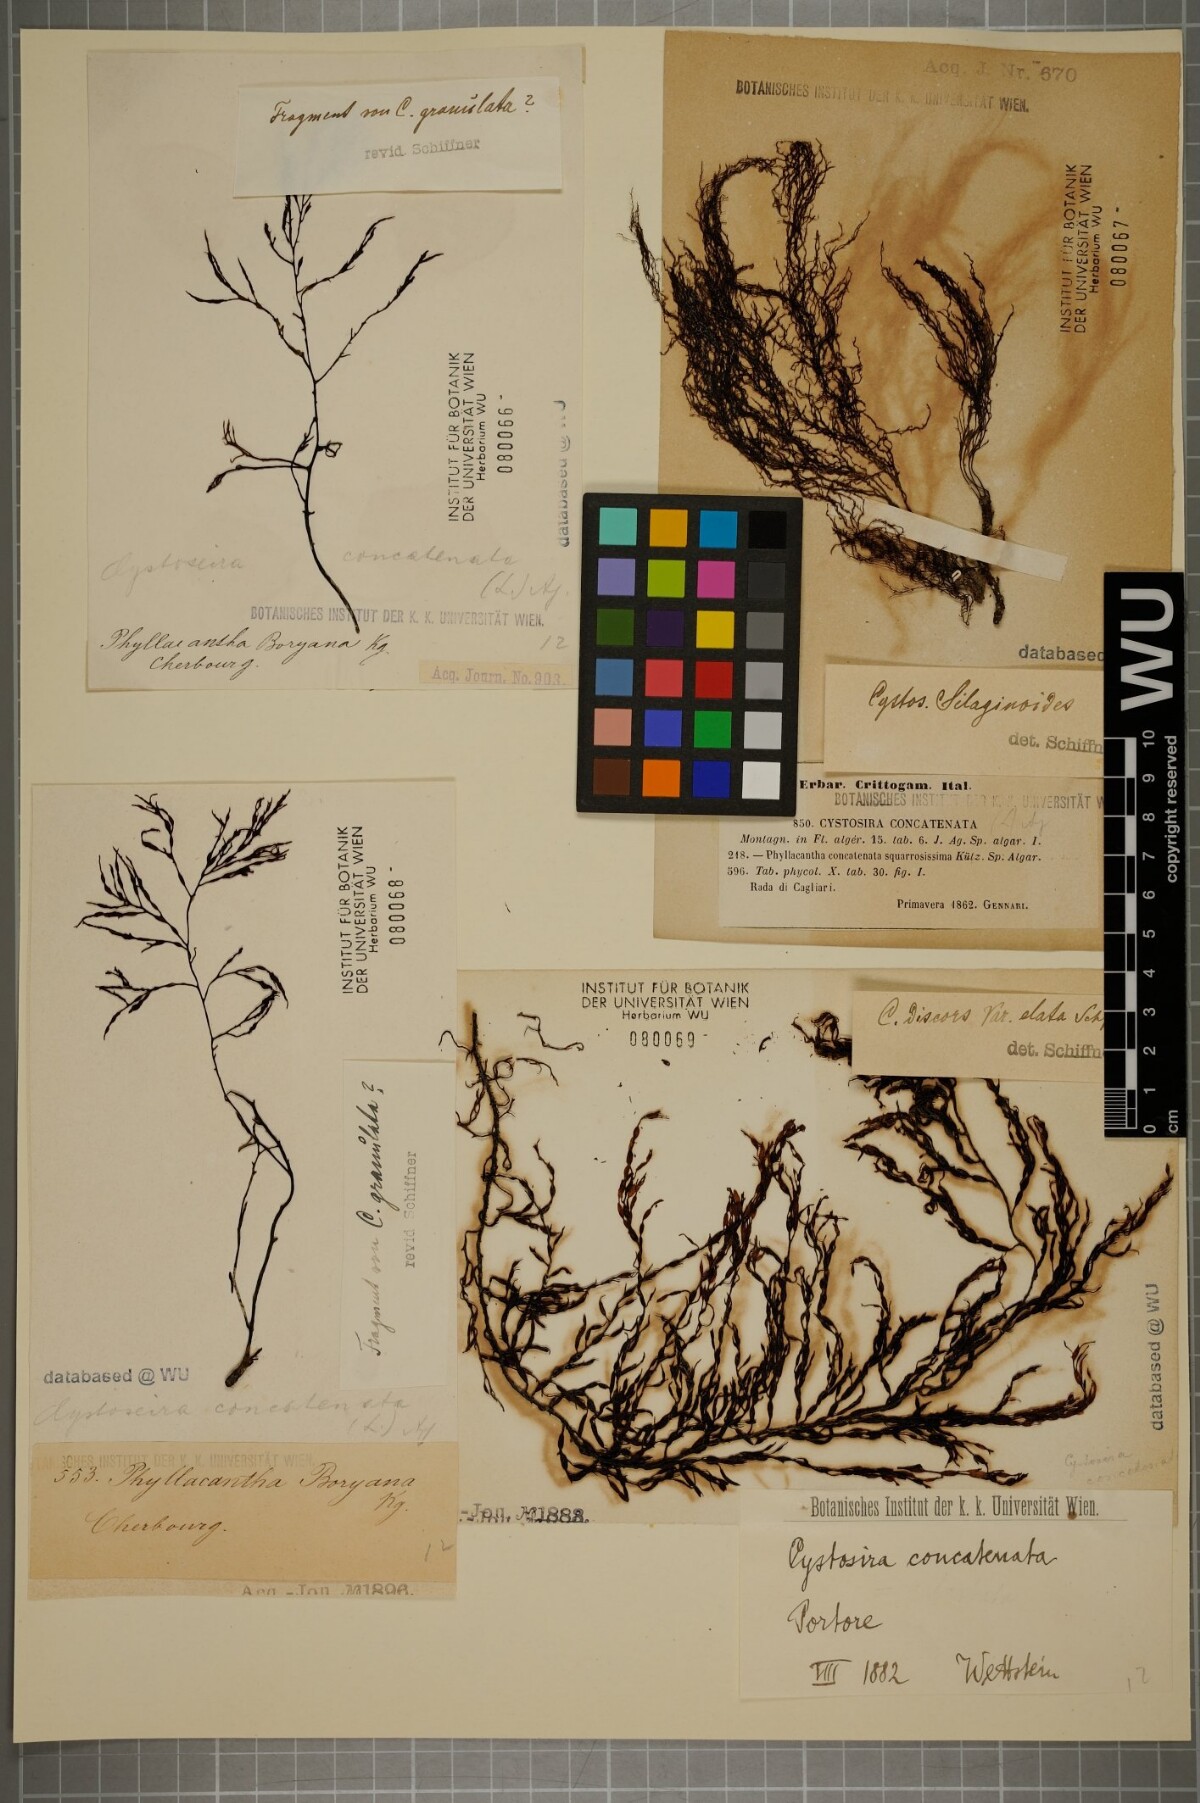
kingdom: Chromista
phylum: Ochrophyta
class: Phaeophyceae
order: Fucales
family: Sargassaceae
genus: Cystoseira
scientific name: Cystoseira foeniculacea
